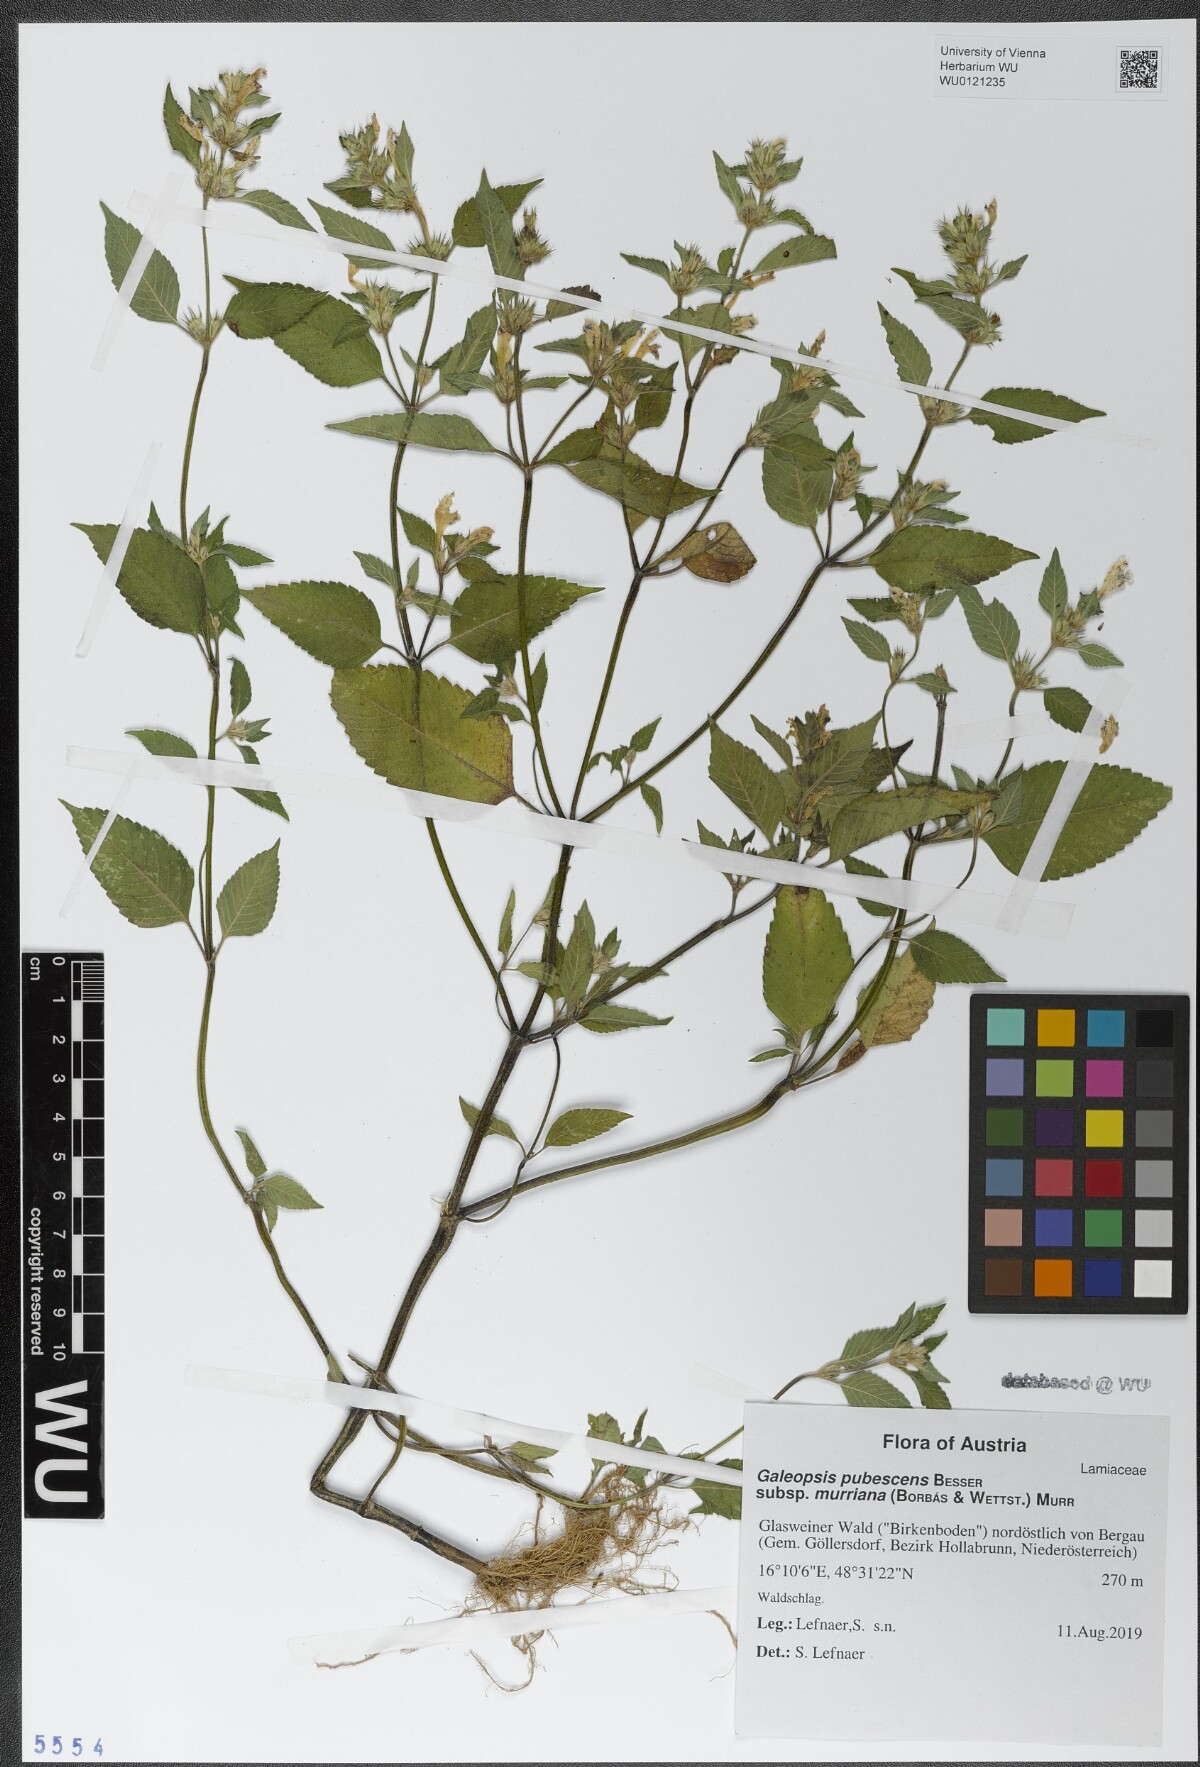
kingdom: Plantae
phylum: Tracheophyta
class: Magnoliopsida
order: Lamiales
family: Lamiaceae
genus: Galeopsis
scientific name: Galeopsis pubescens
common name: Downy hemp-nettle
